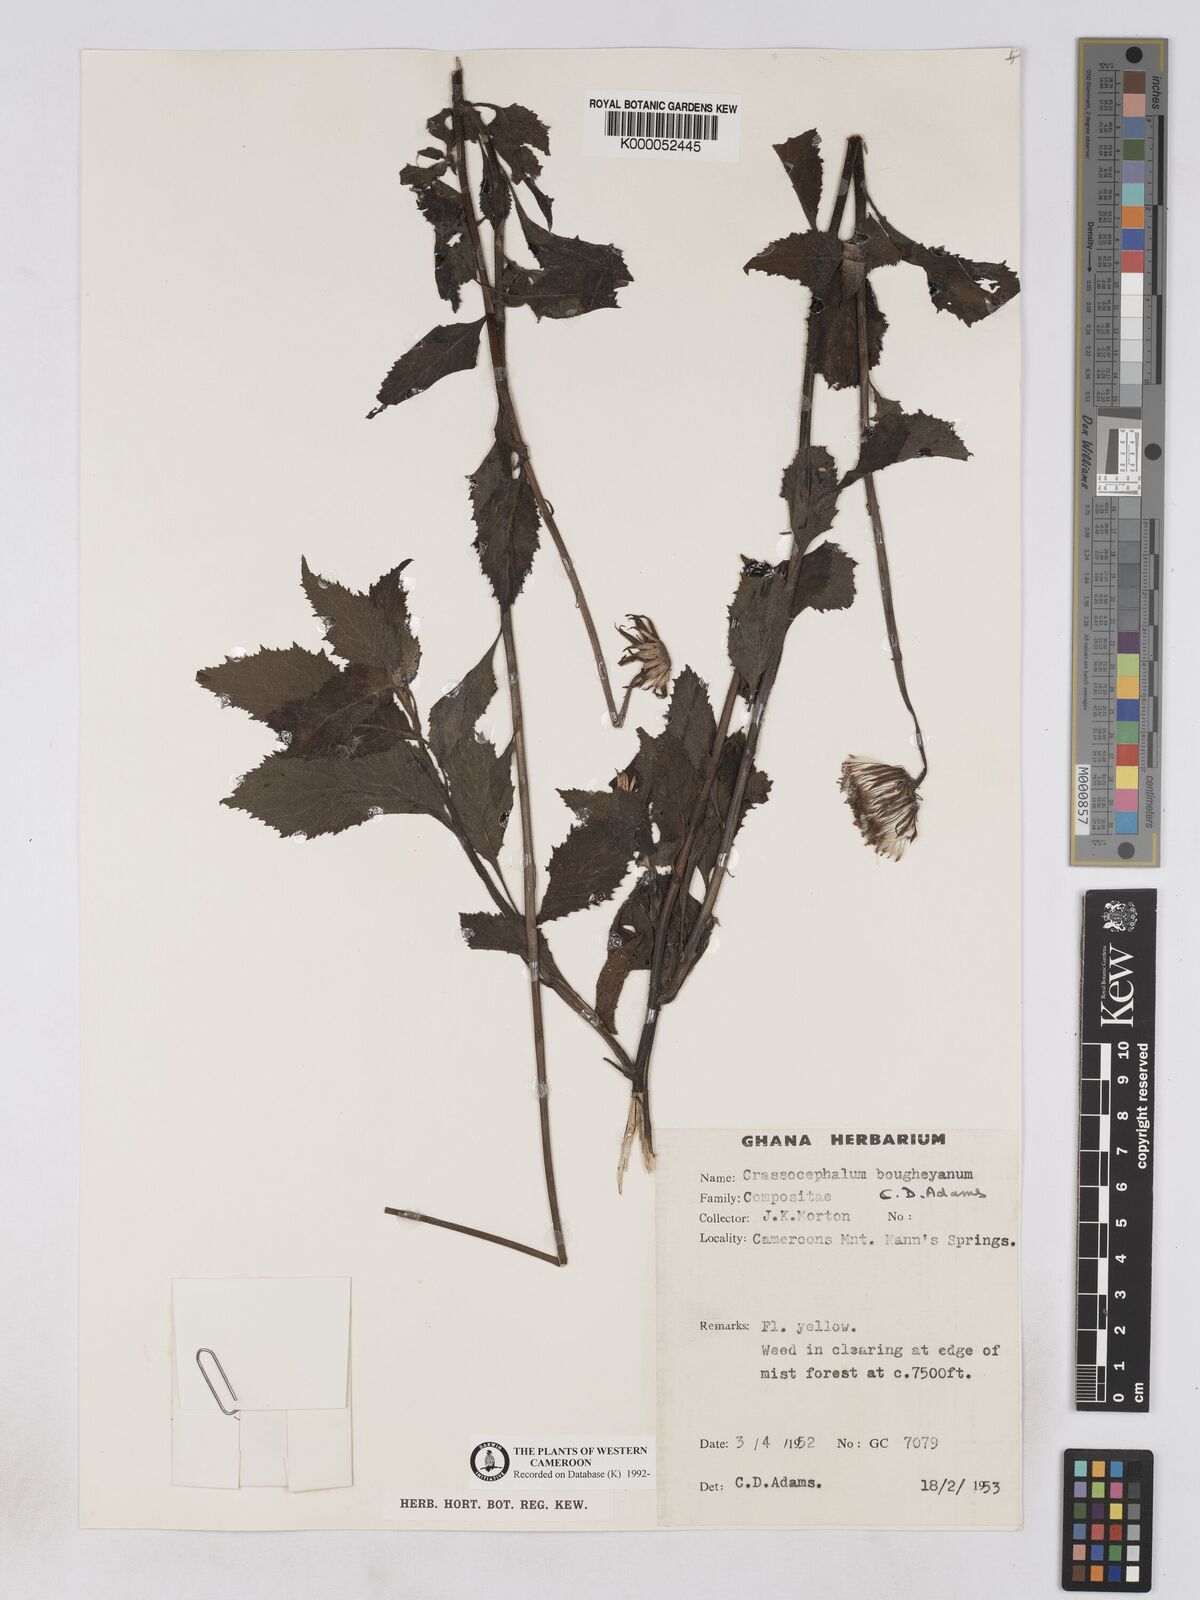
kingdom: Plantae
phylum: Tracheophyta
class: Magnoliopsida
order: Asterales
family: Asteraceae
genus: Crassocephalum
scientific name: Crassocephalum bougheyanum
